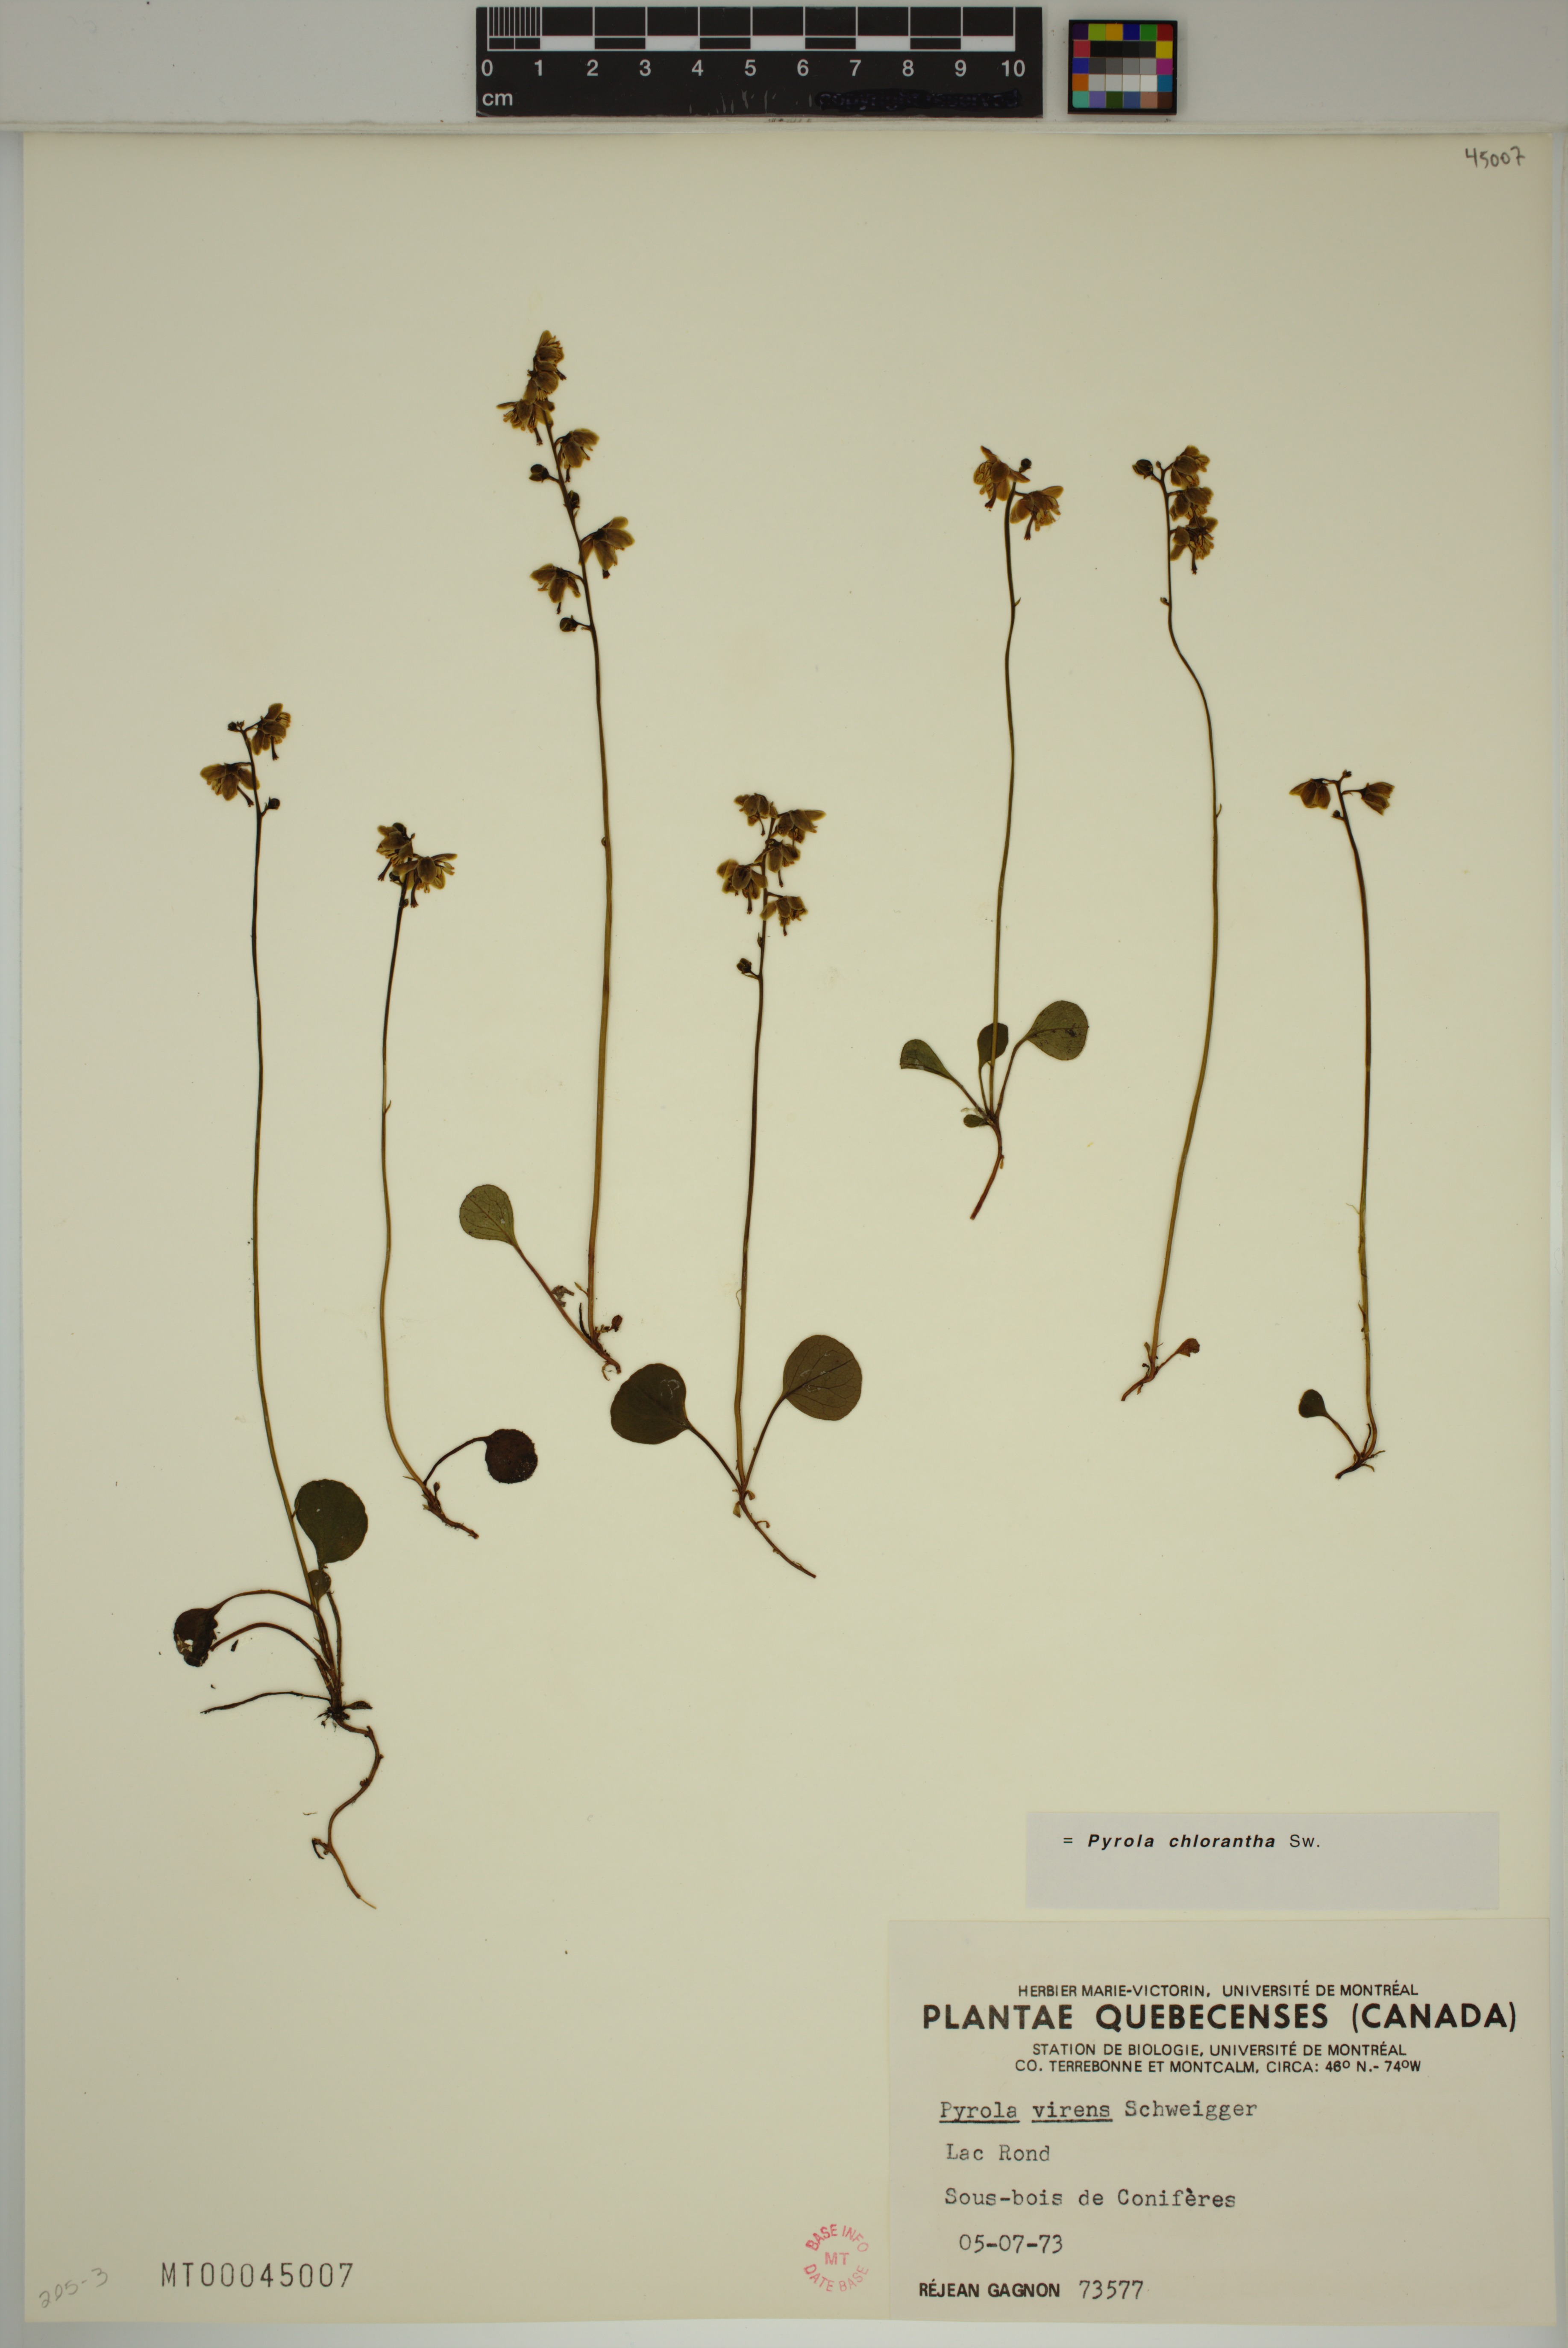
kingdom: Plantae
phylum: Tracheophyta
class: Magnoliopsida
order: Ericales
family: Ericaceae
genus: Pyrola
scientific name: Pyrola chlorantha
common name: Green wintergreen
